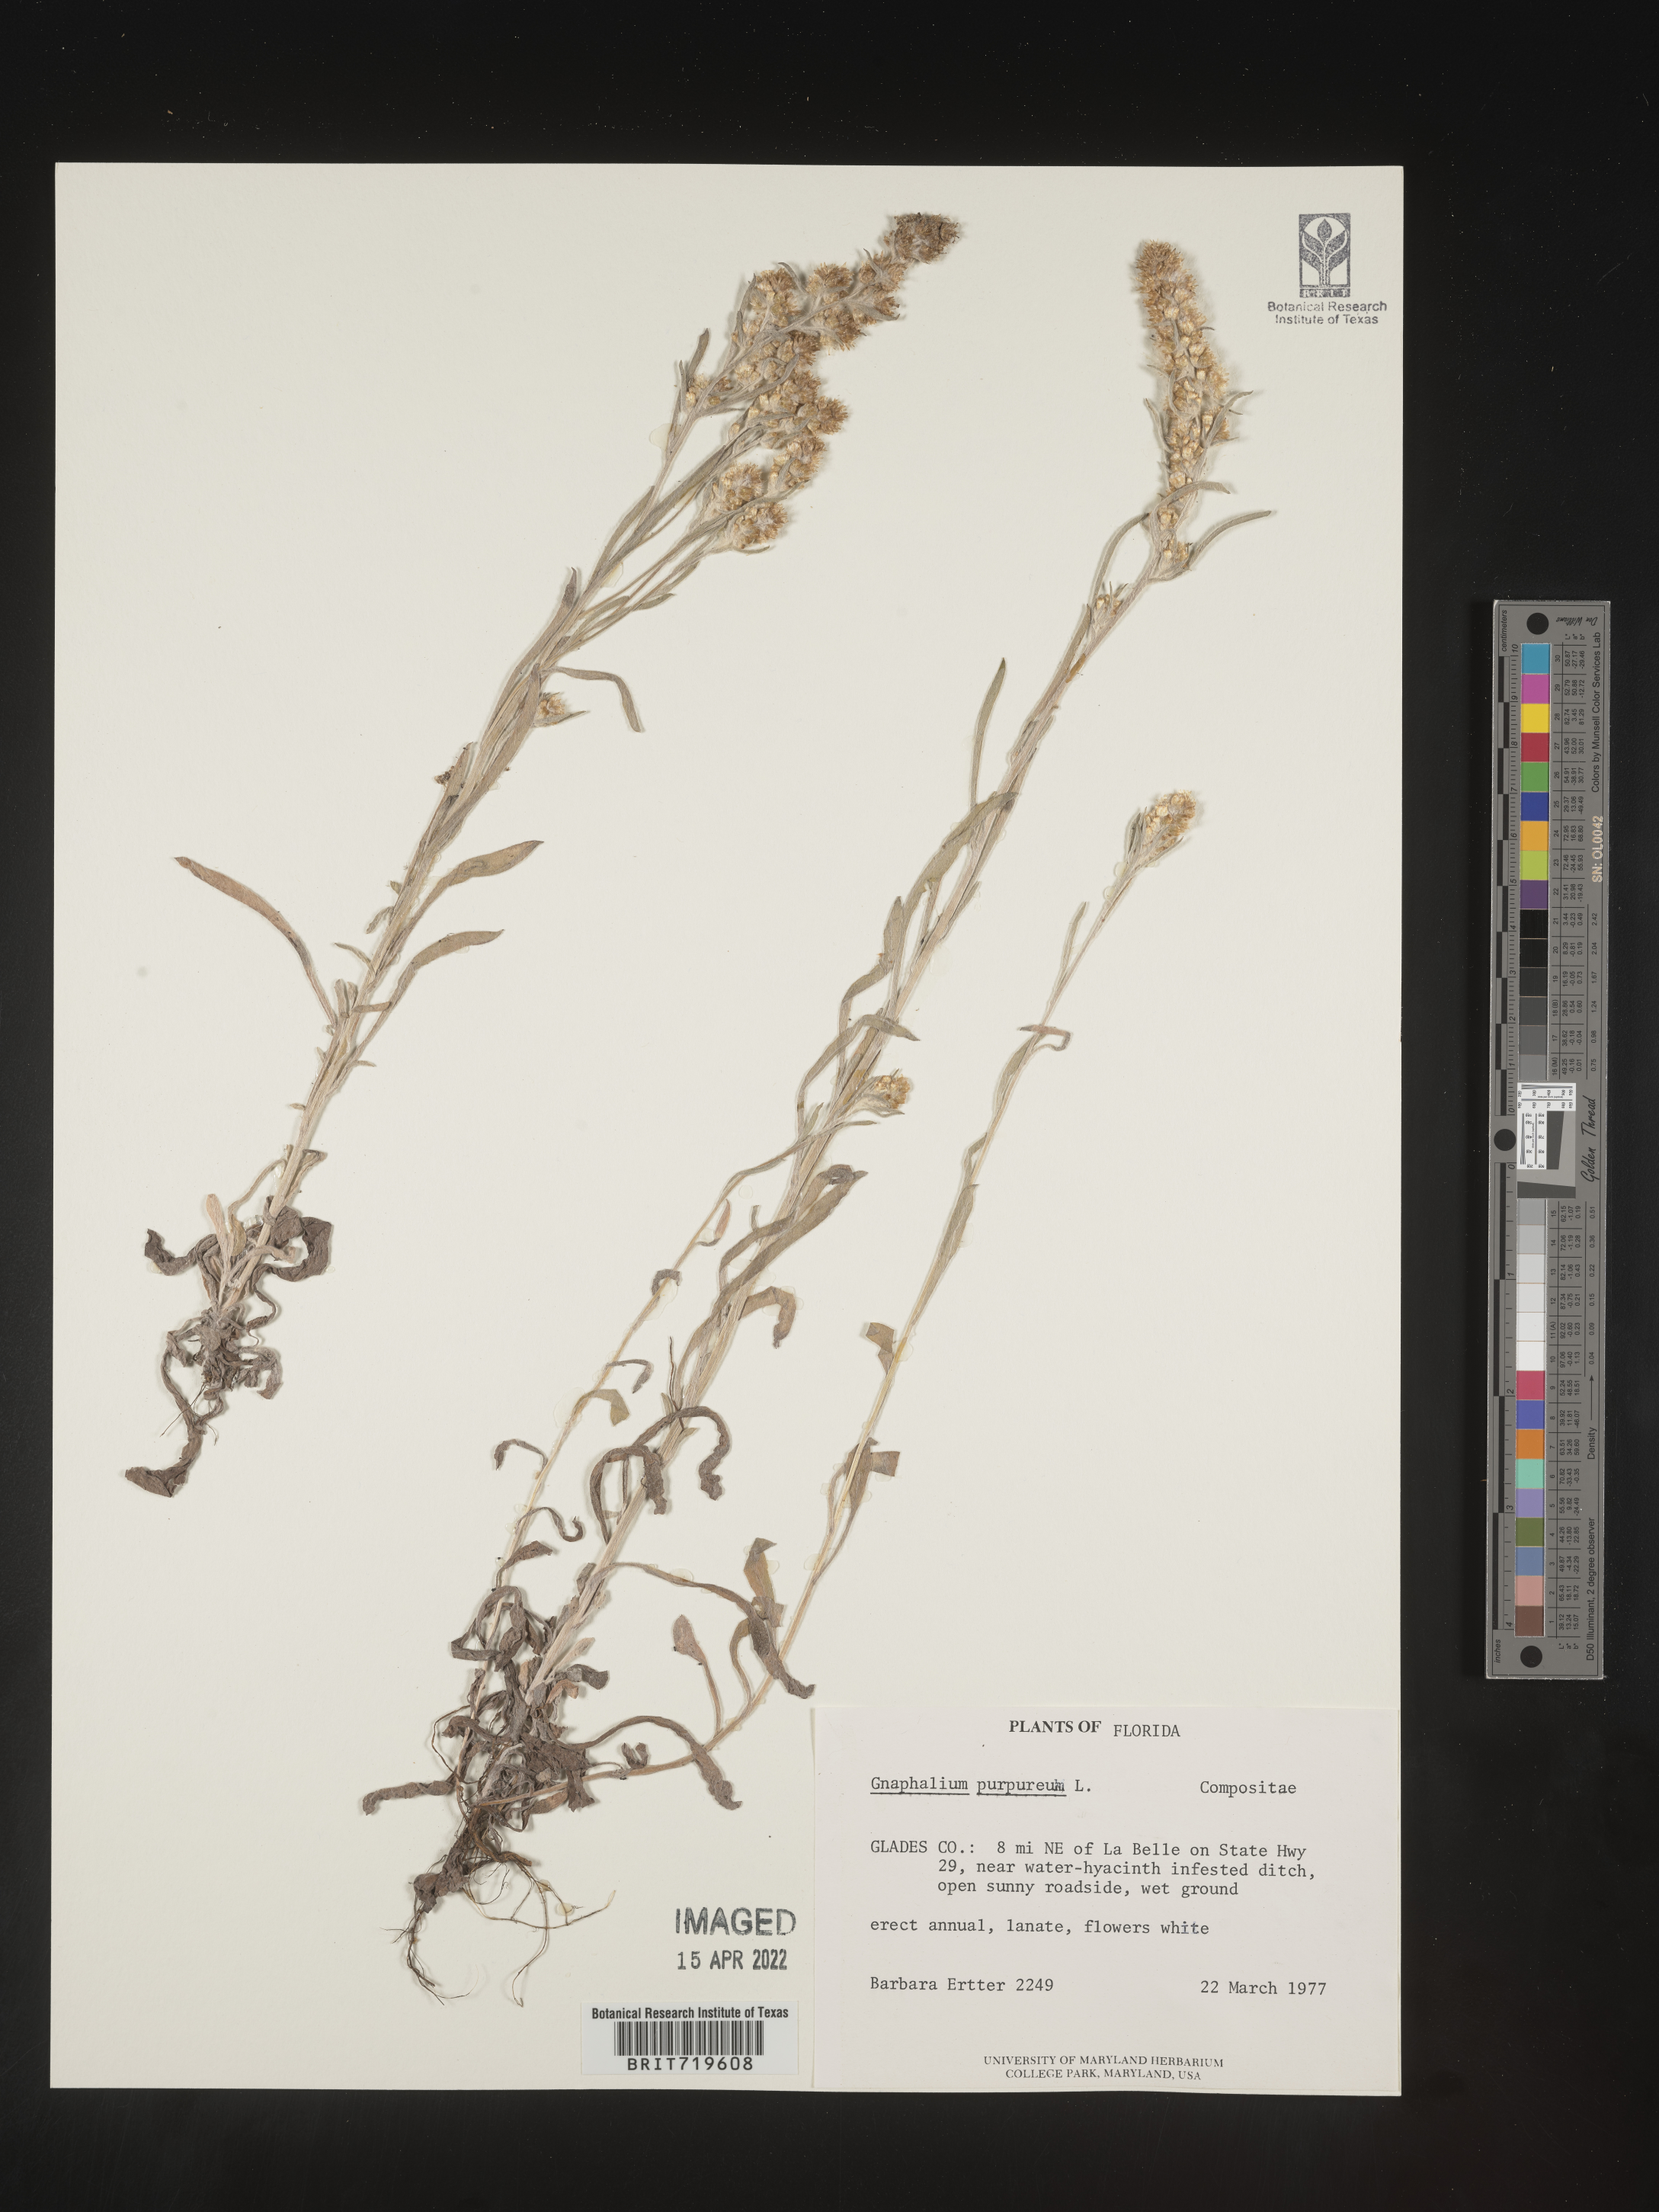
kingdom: Plantae
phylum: Tracheophyta
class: Magnoliopsida
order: Asterales
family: Asteraceae
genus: Gamochaeta
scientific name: Gamochaeta antillana
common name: Delicate everlasting
